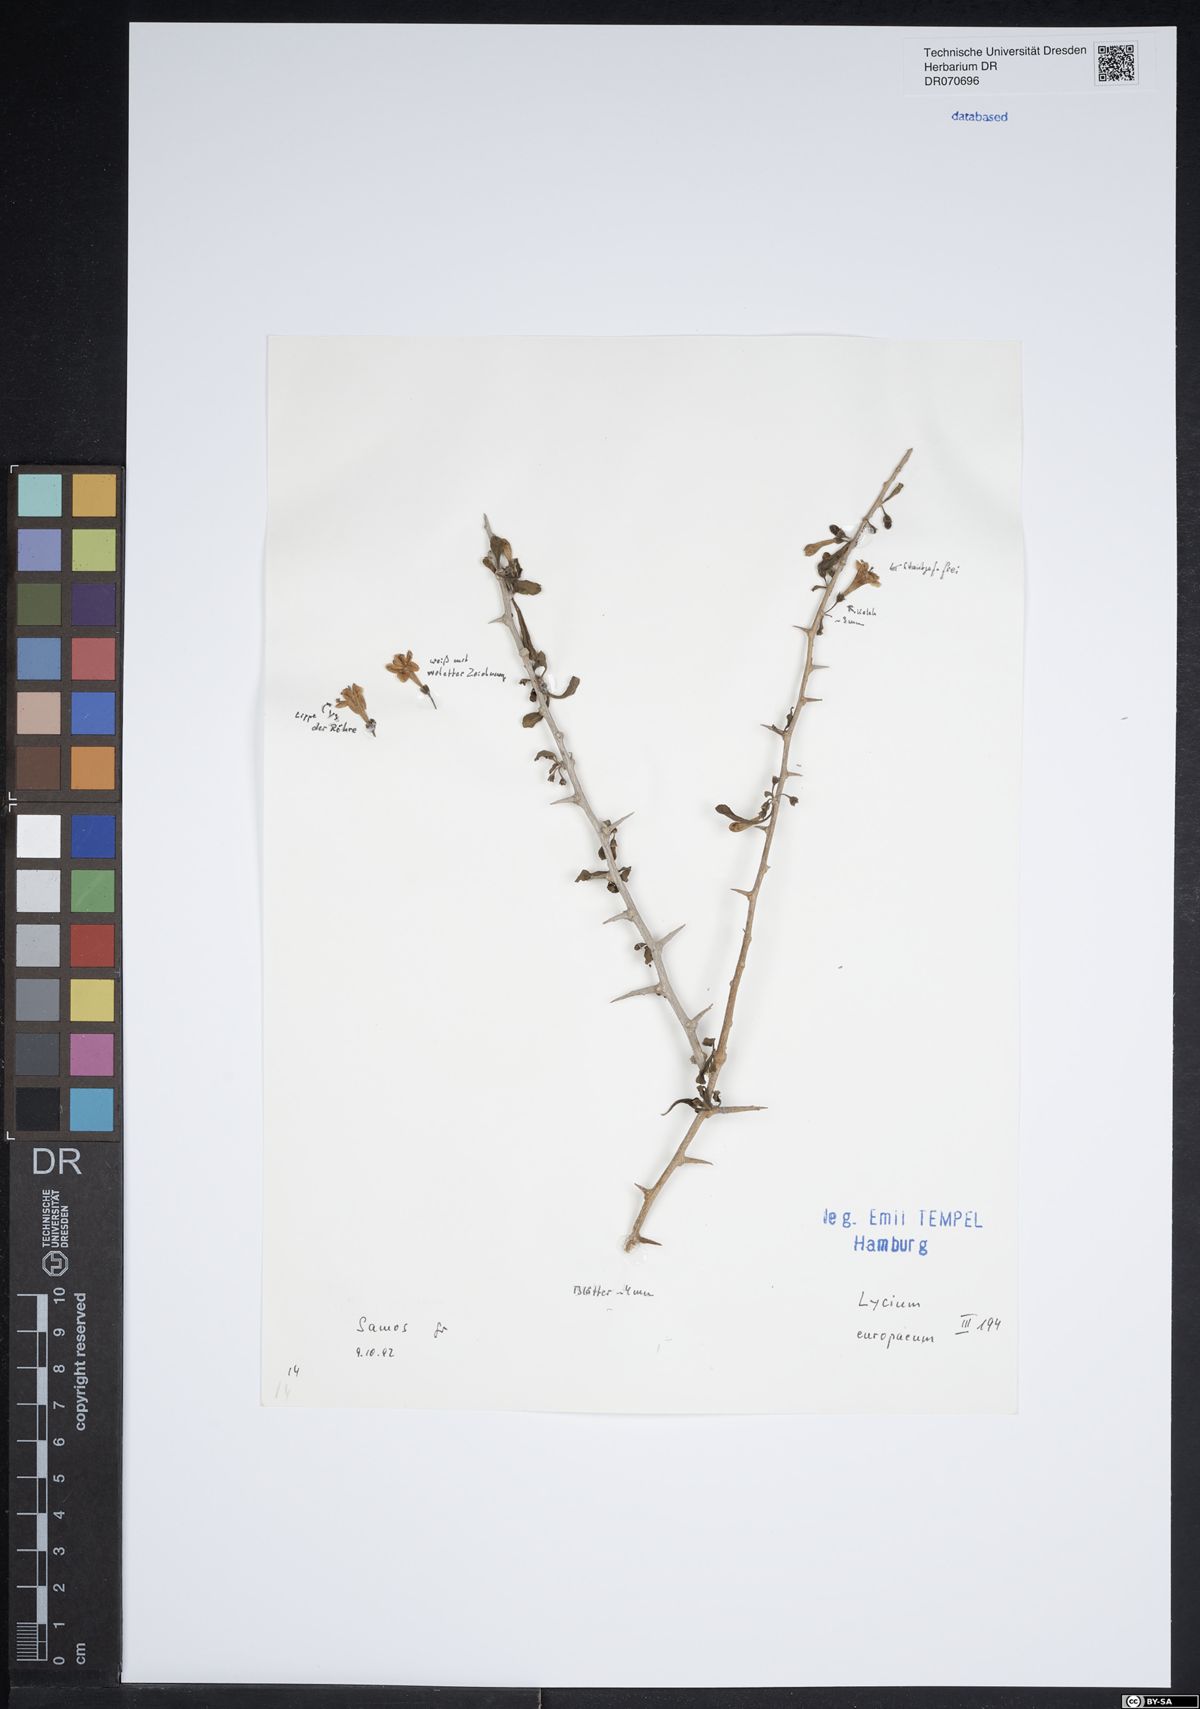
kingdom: Plantae
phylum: Tracheophyta
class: Magnoliopsida
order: Solanales
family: Solanaceae
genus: Lycium
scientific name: Lycium europaeum
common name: Boxthorn
